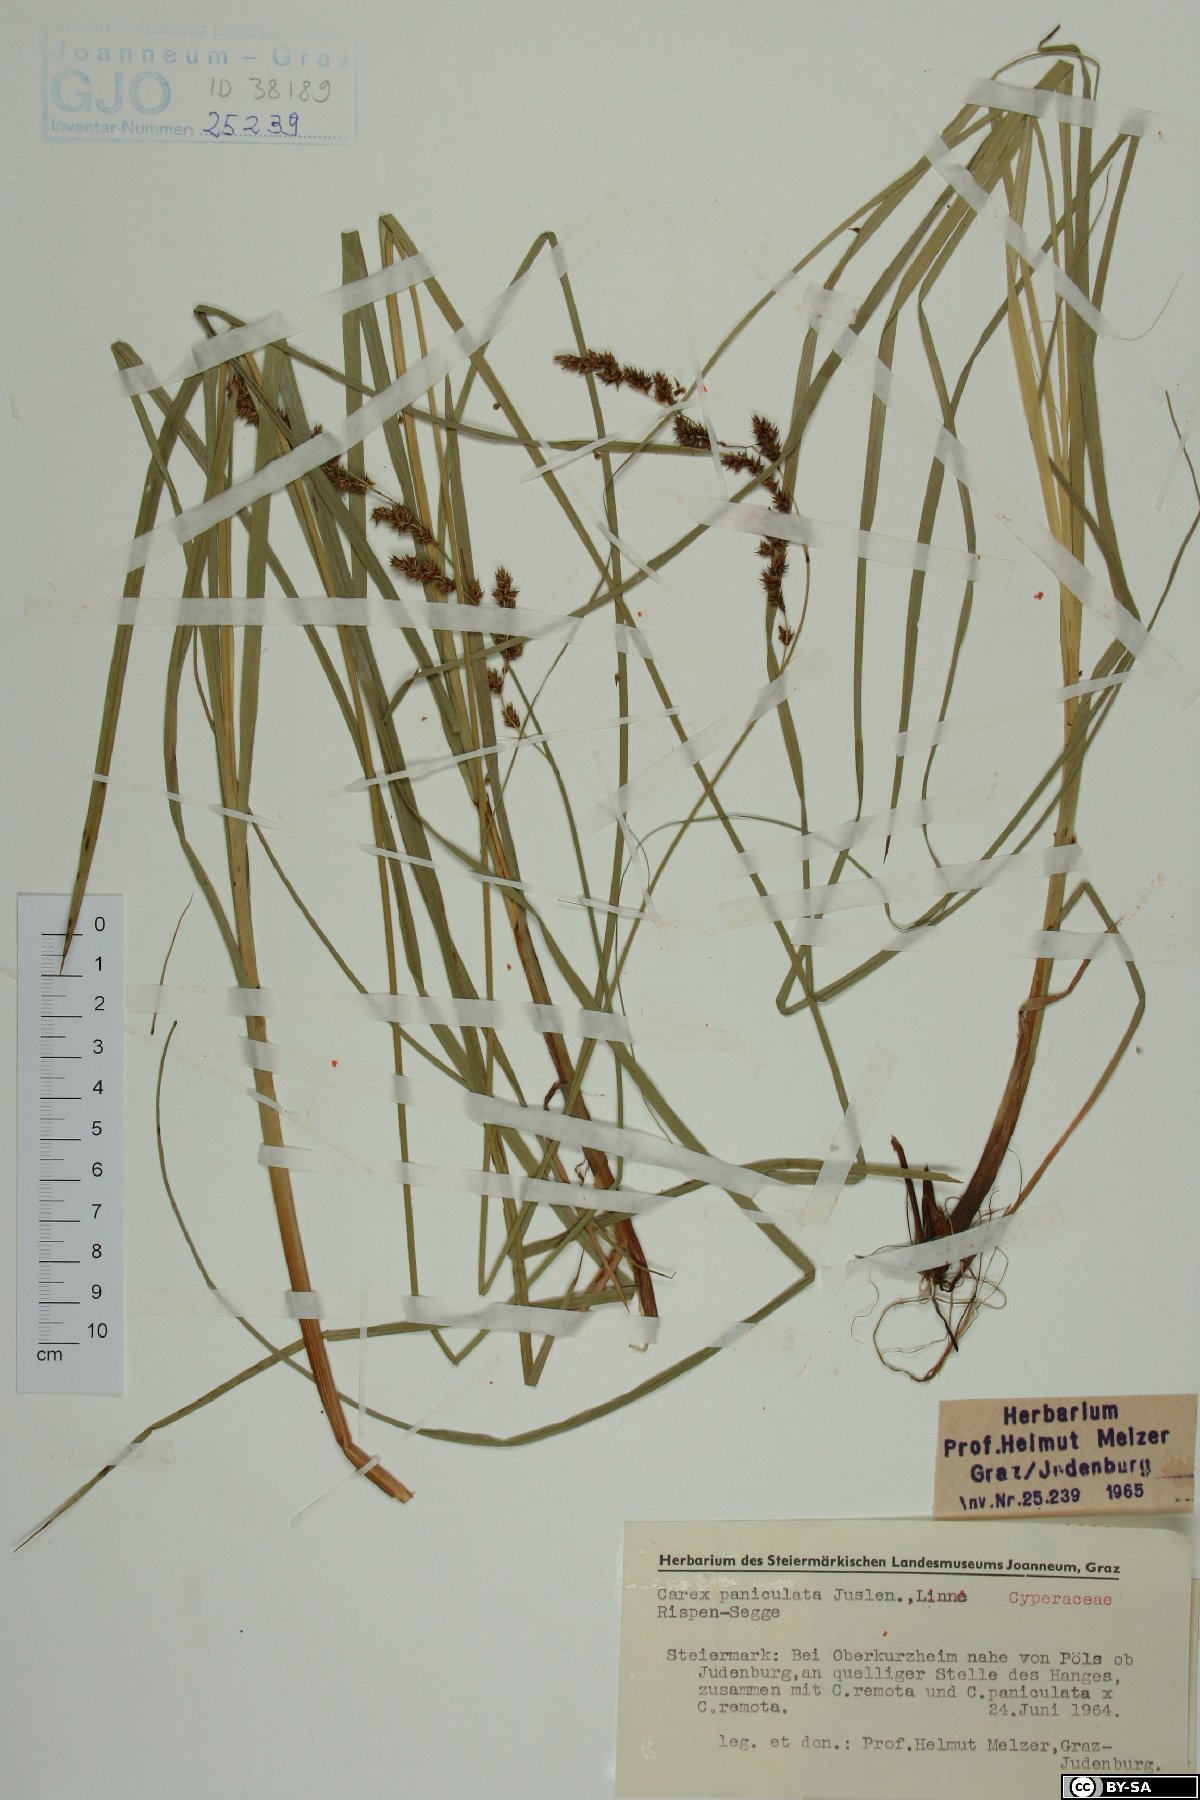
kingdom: Plantae
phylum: Tracheophyta
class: Liliopsida
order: Poales
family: Cyperaceae
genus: Carex
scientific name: Carex paniculata
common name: Greater tussock-sedge
